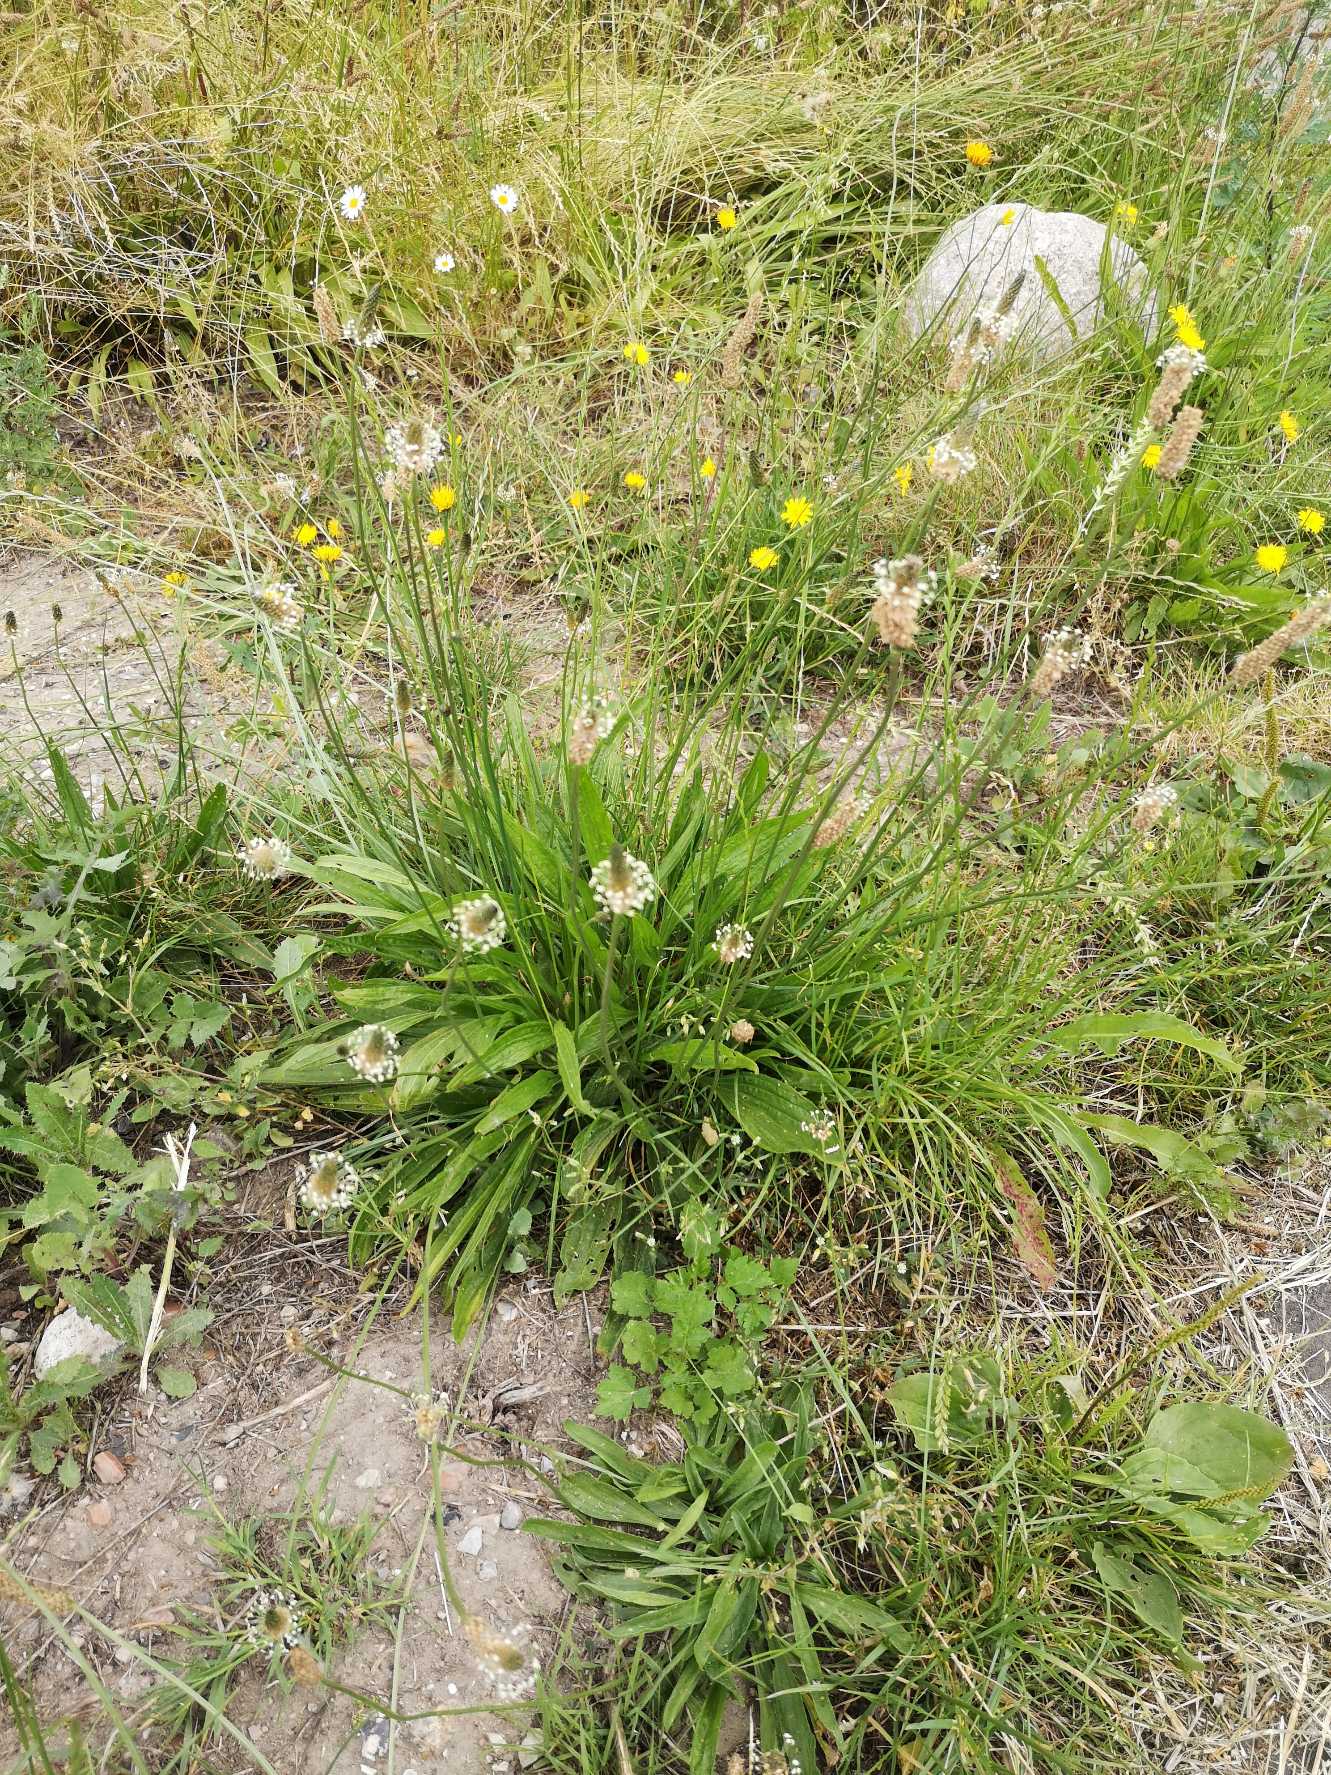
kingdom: Plantae
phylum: Tracheophyta
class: Magnoliopsida
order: Lamiales
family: Plantaginaceae
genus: Plantago
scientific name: Plantago lanceolata
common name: Lancet-vejbred
